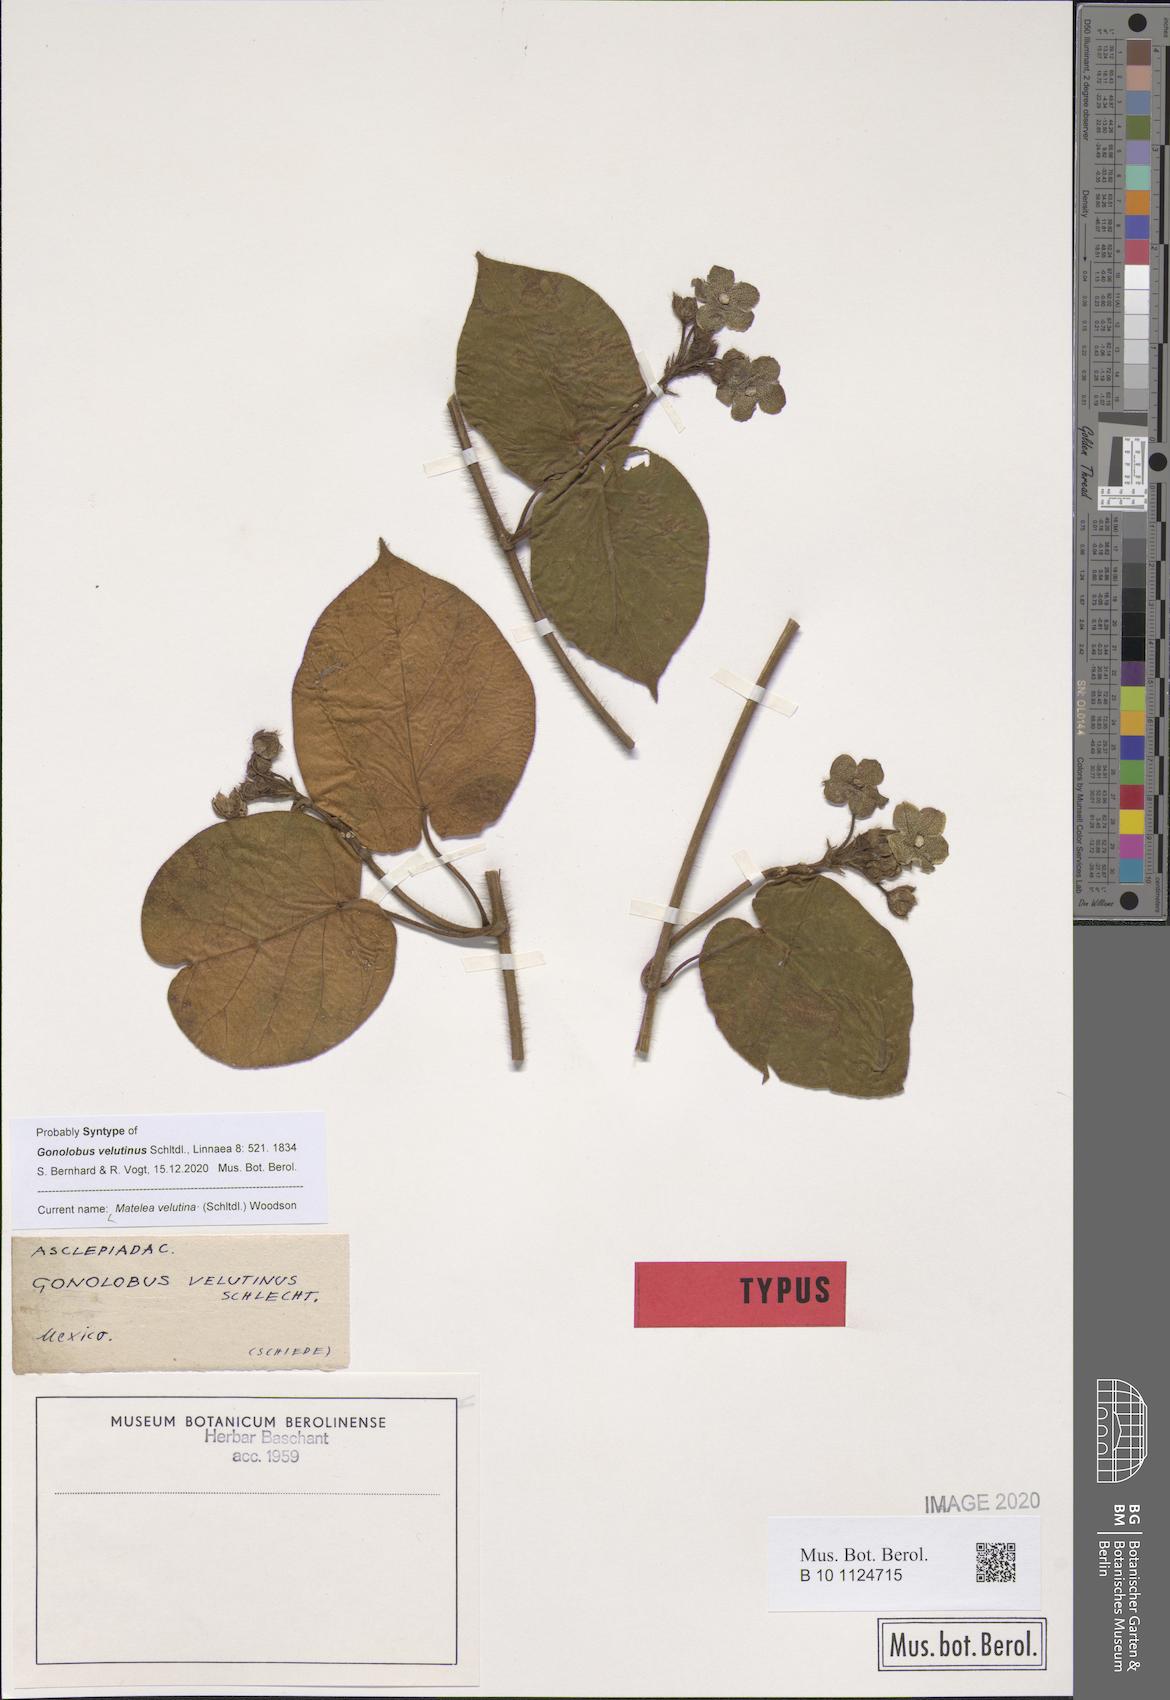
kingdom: Plantae
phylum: Tracheophyta
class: Magnoliopsida
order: Gentianales
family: Apocynaceae
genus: Matelea
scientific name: Matelea velutina
